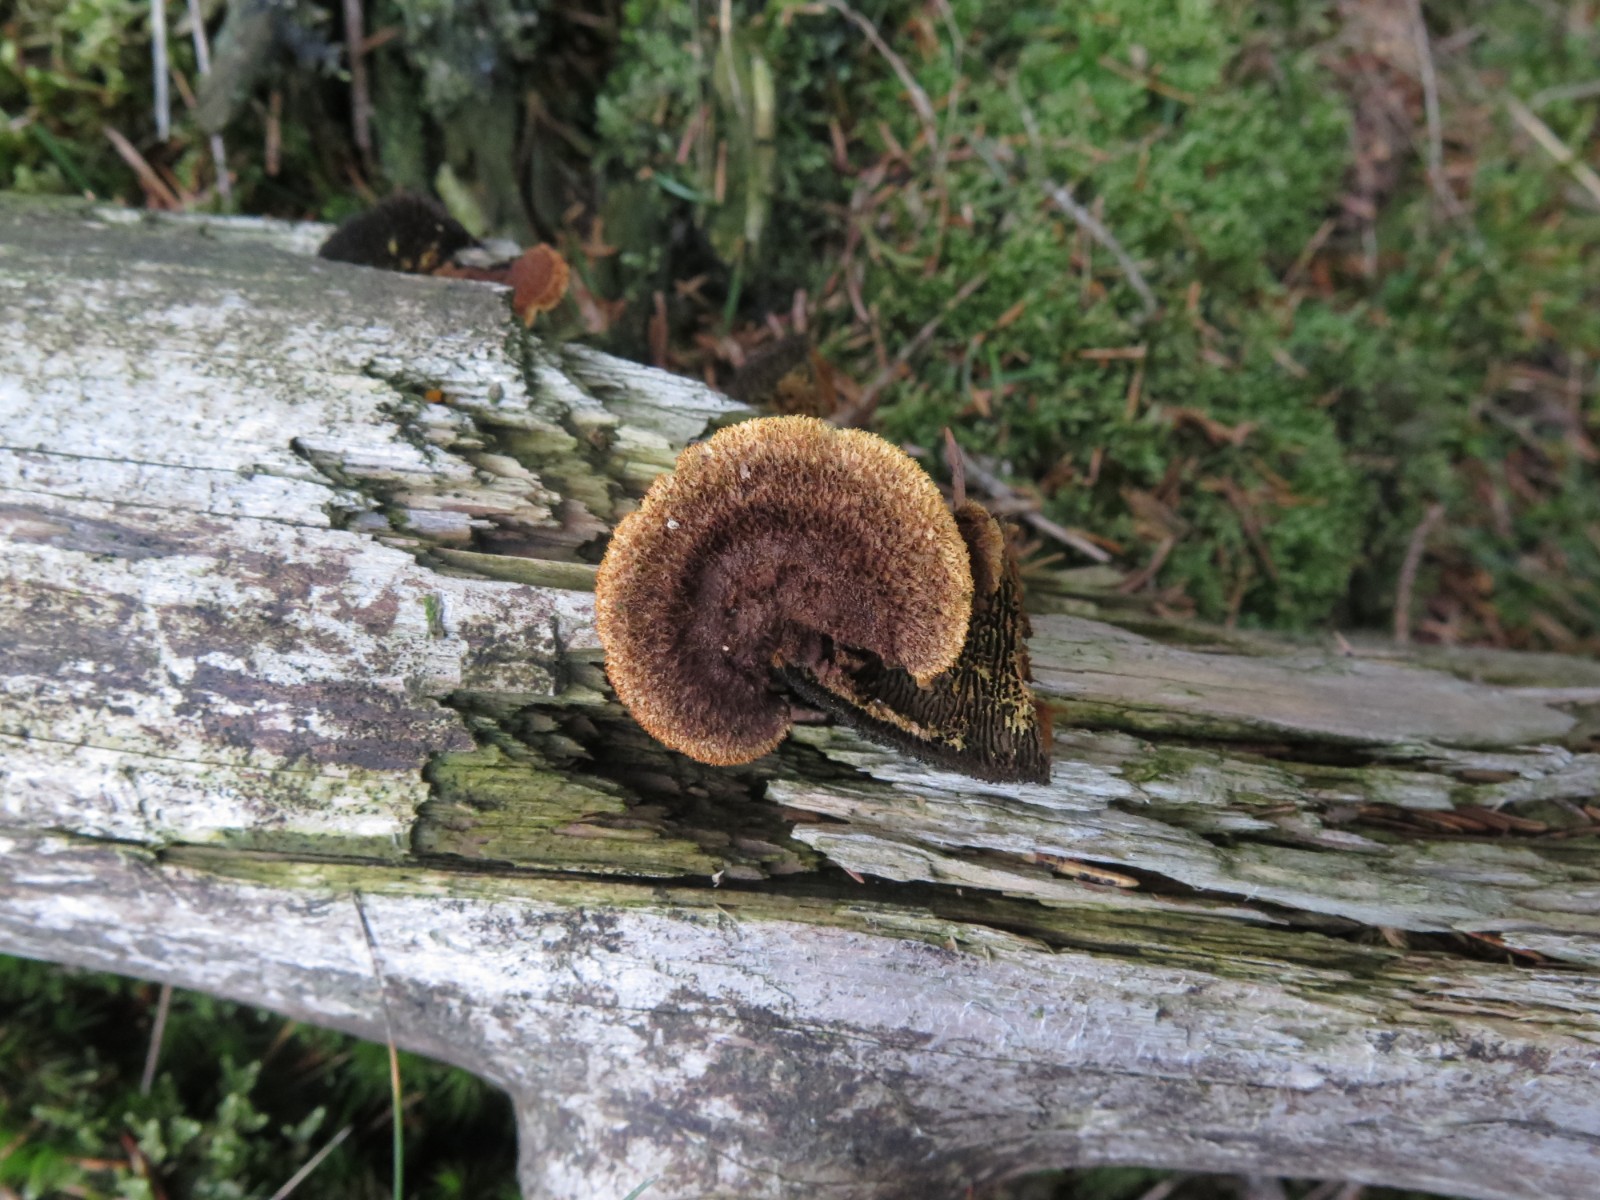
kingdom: Fungi
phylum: Basidiomycota
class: Agaricomycetes
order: Gloeophyllales
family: Gloeophyllaceae
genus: Gloeophyllum
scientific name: Gloeophyllum sepiarium
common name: fyrre-korkhat
